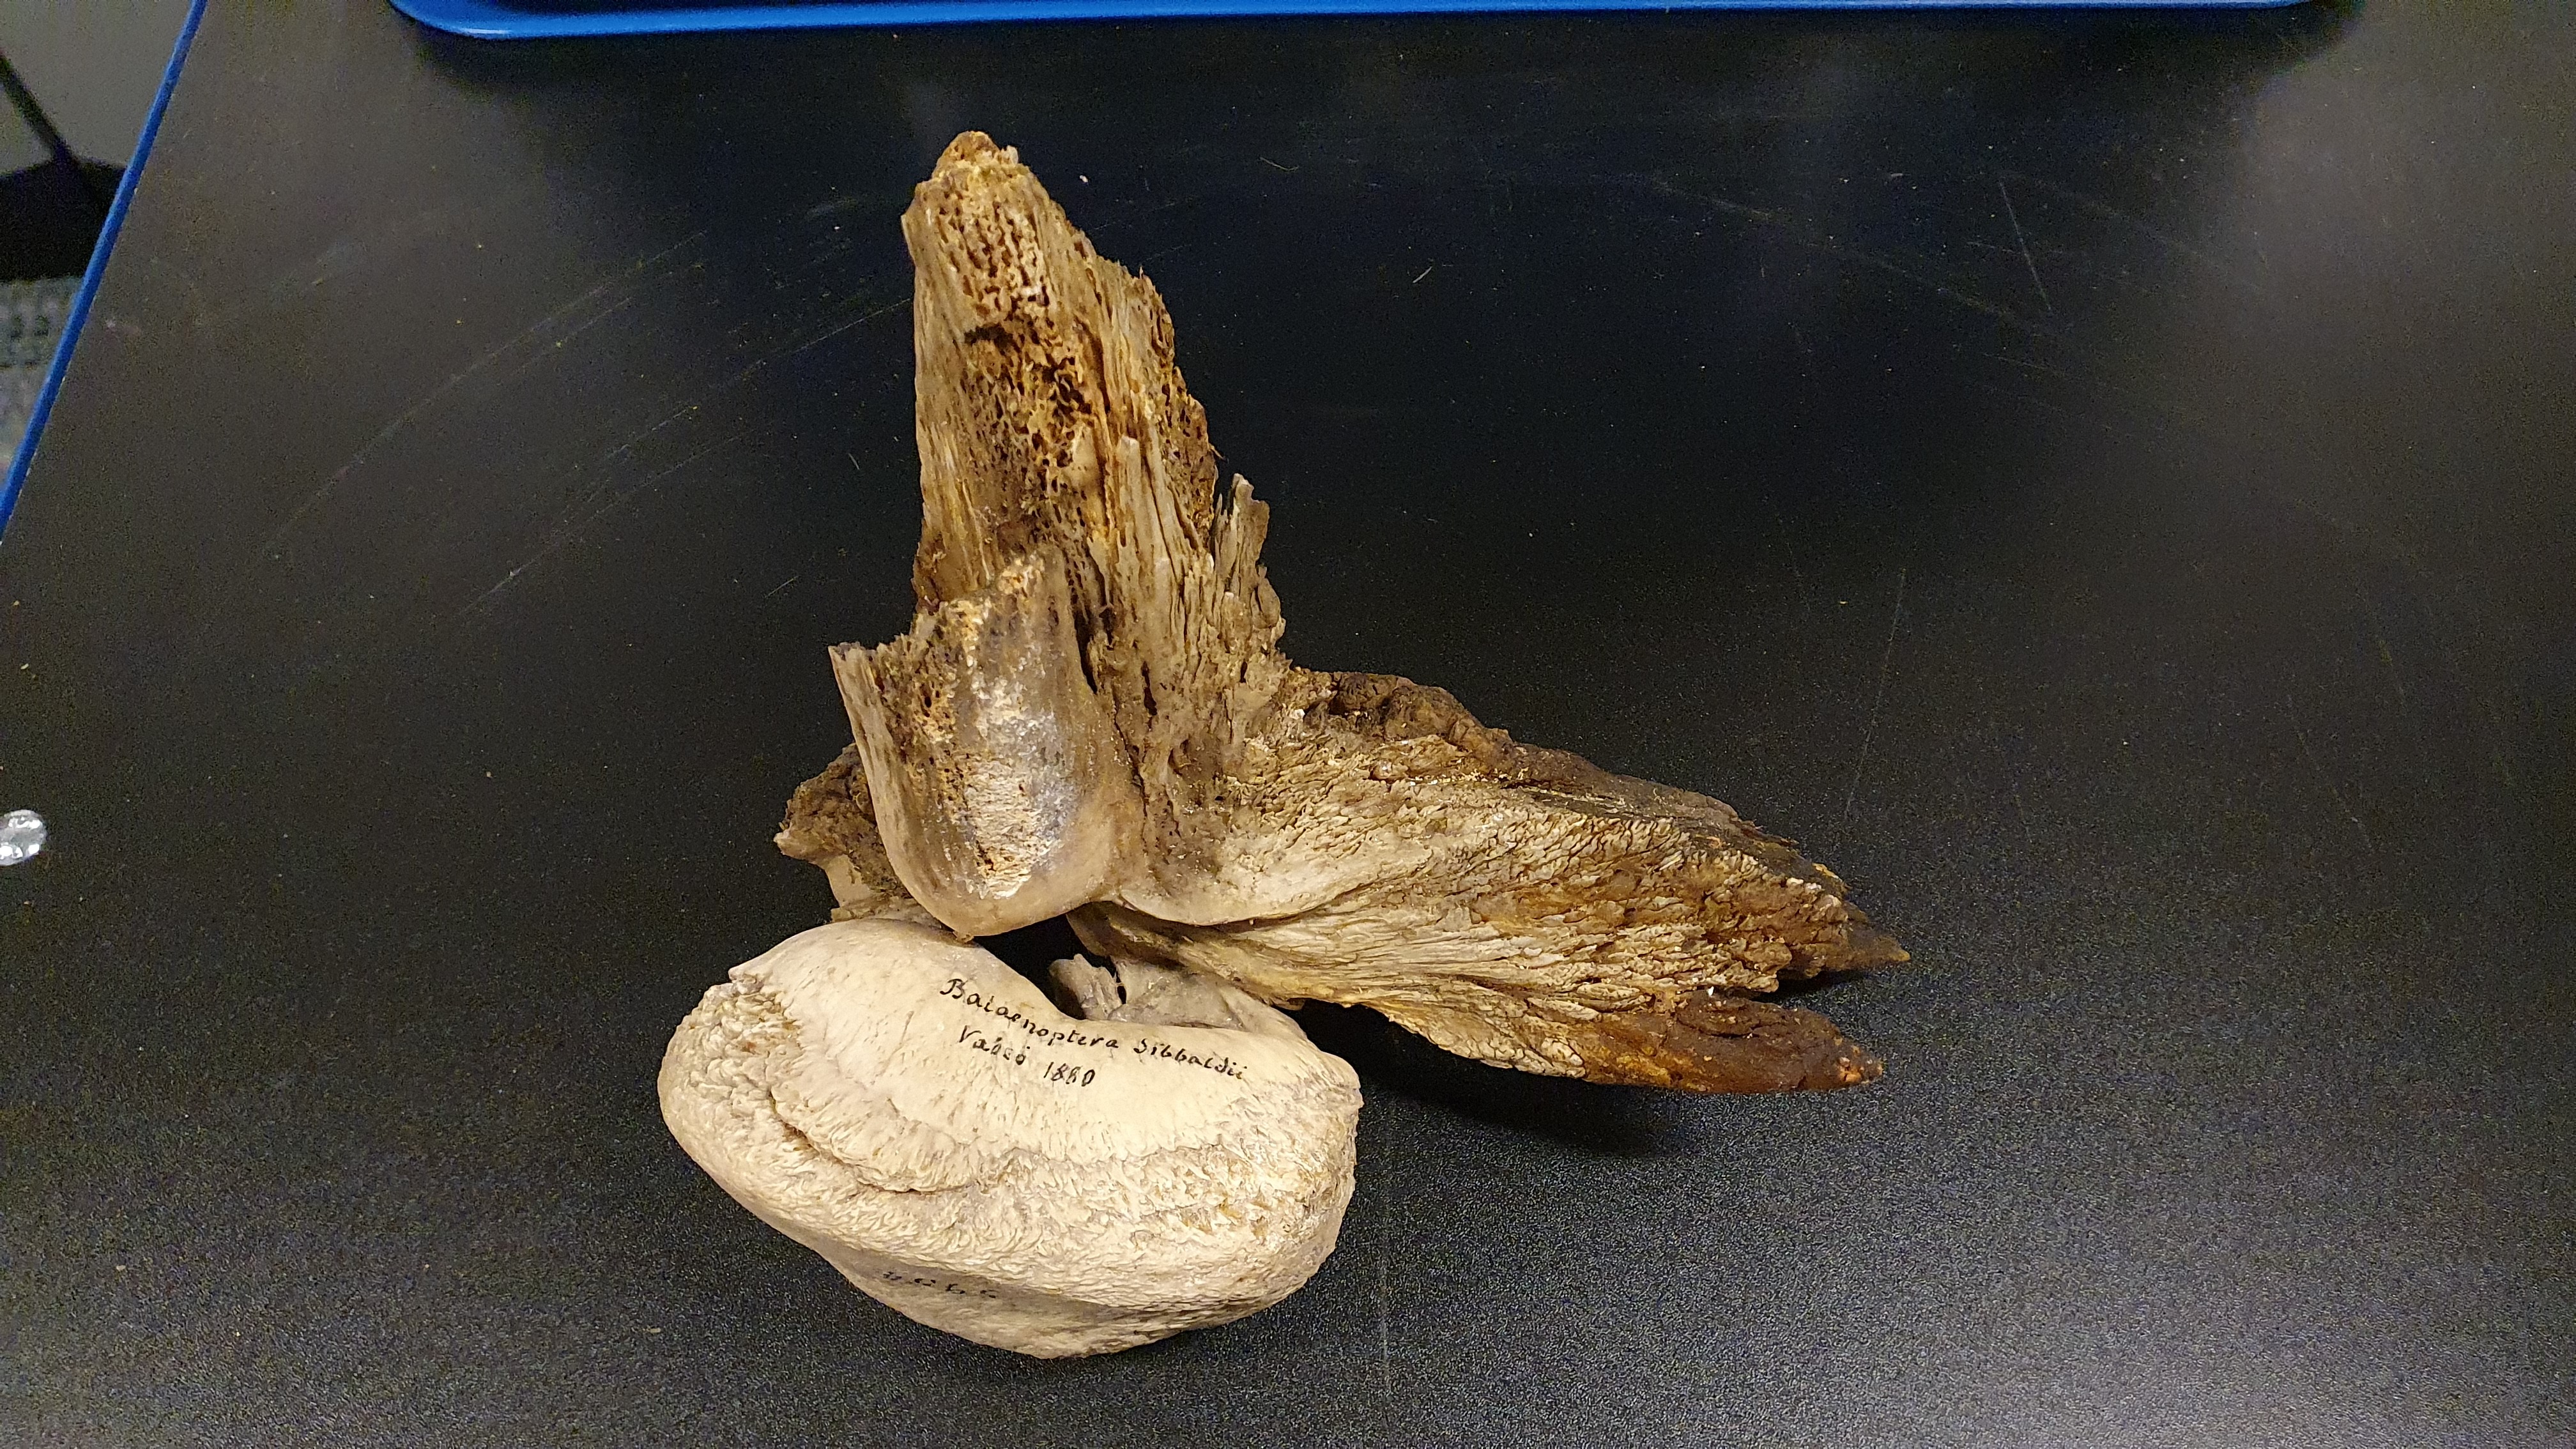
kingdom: Animalia
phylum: Chordata
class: Mammalia
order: Cetacea
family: Balaenopteridae
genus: Balaenoptera
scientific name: Balaenoptera musculus
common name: Blue whale
